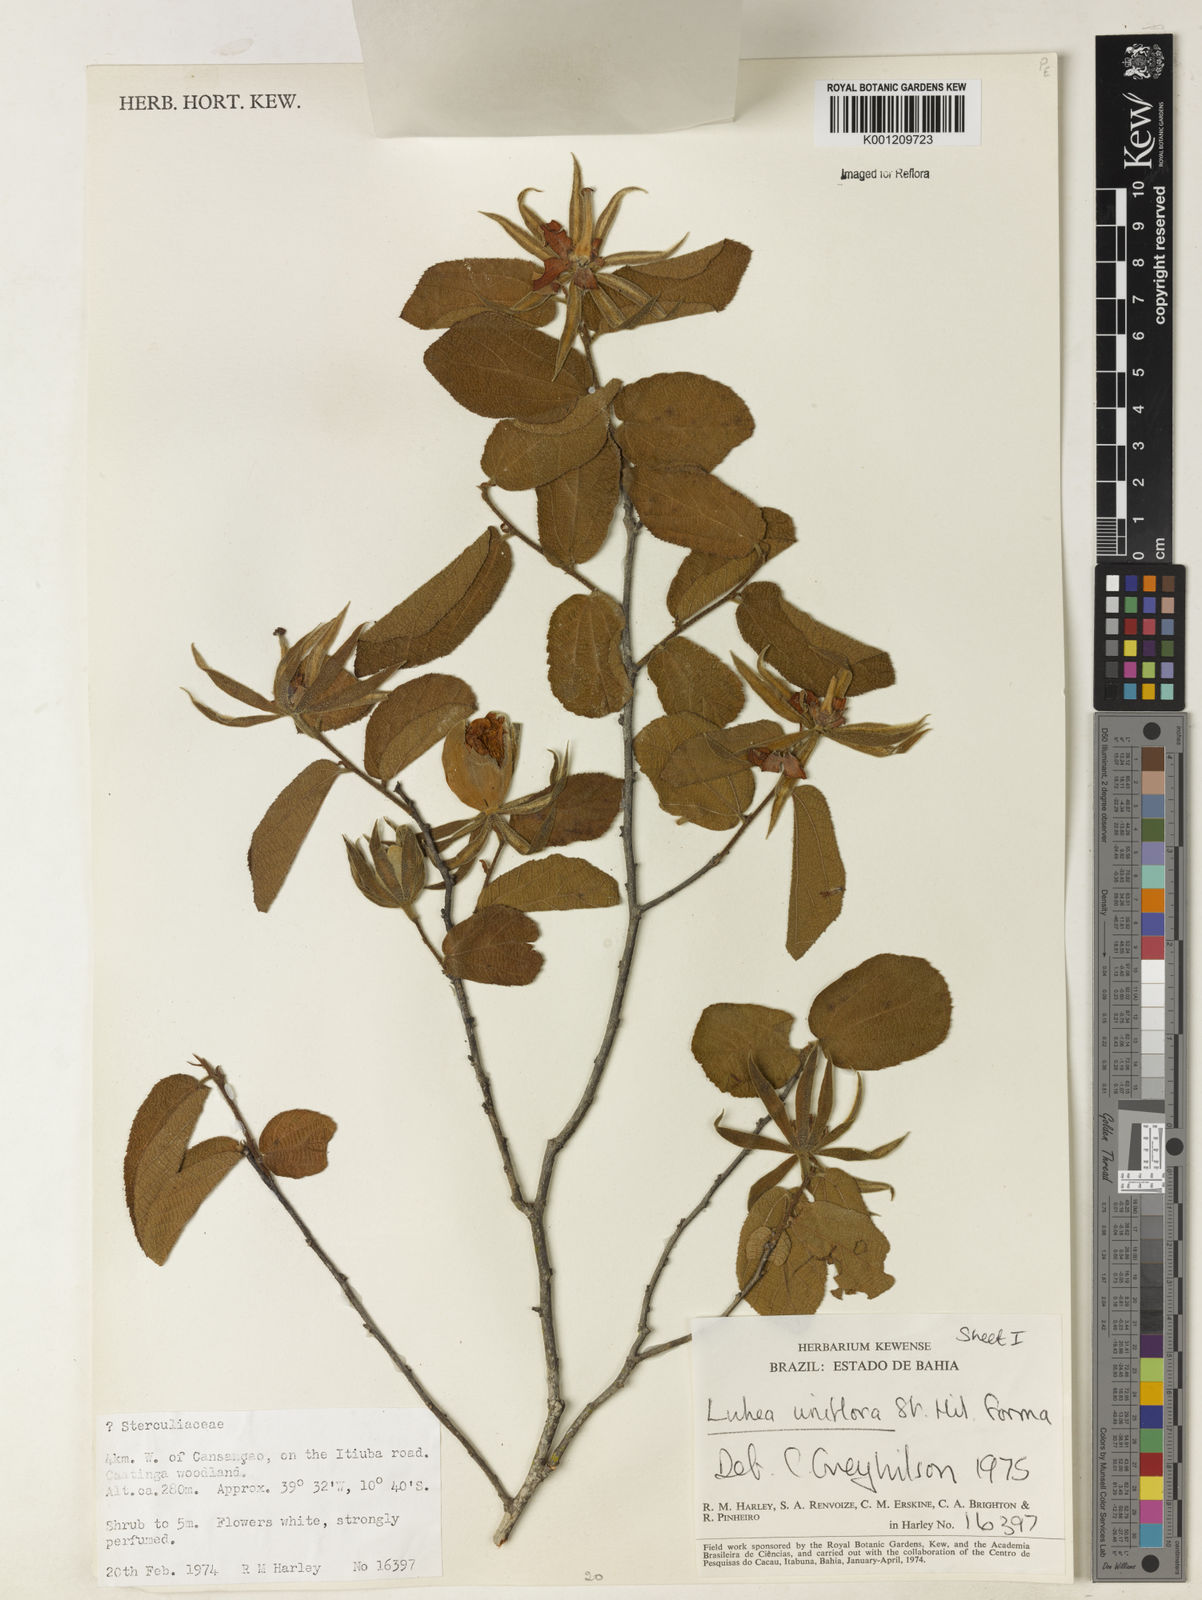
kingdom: Plantae
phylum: Tracheophyta
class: Magnoliopsida
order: Malvales
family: Malvaceae
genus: Luehea
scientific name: Luehea candicans
